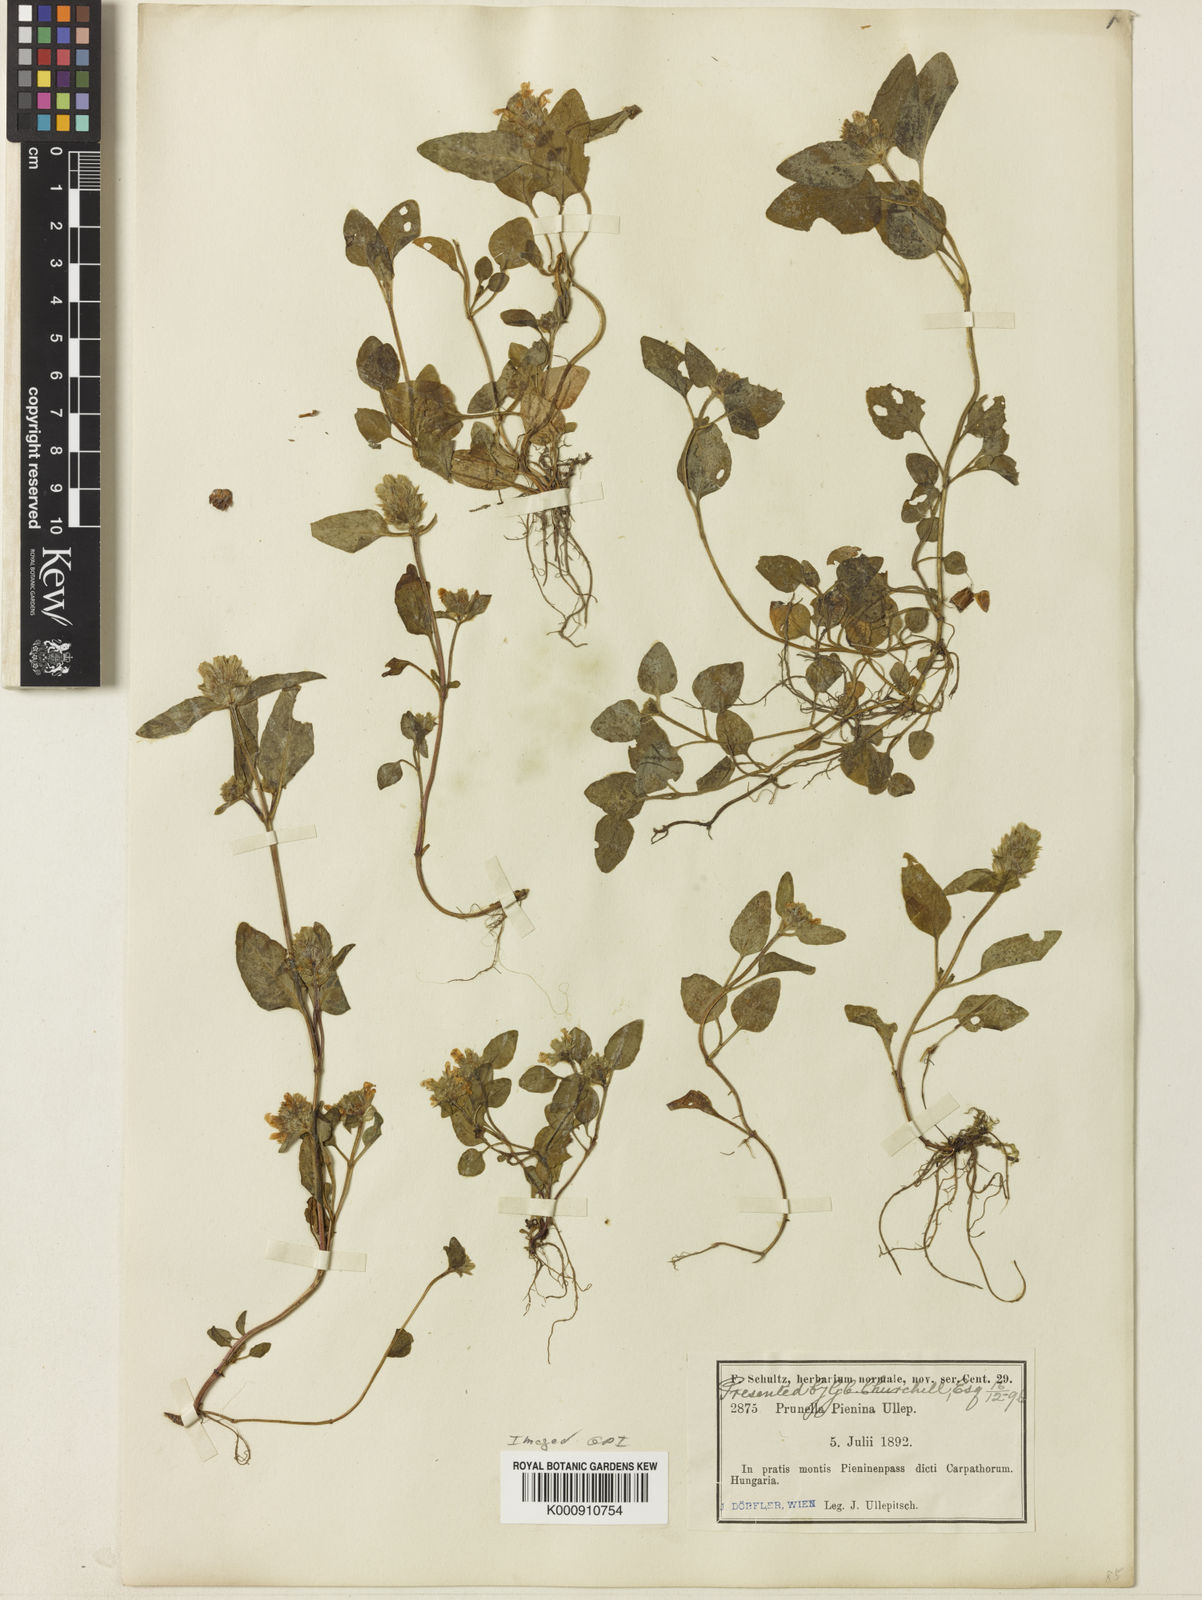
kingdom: Plantae
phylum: Tracheophyta
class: Magnoliopsida
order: Lamiales
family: Lamiaceae
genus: Prunella
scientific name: Prunella pienina
